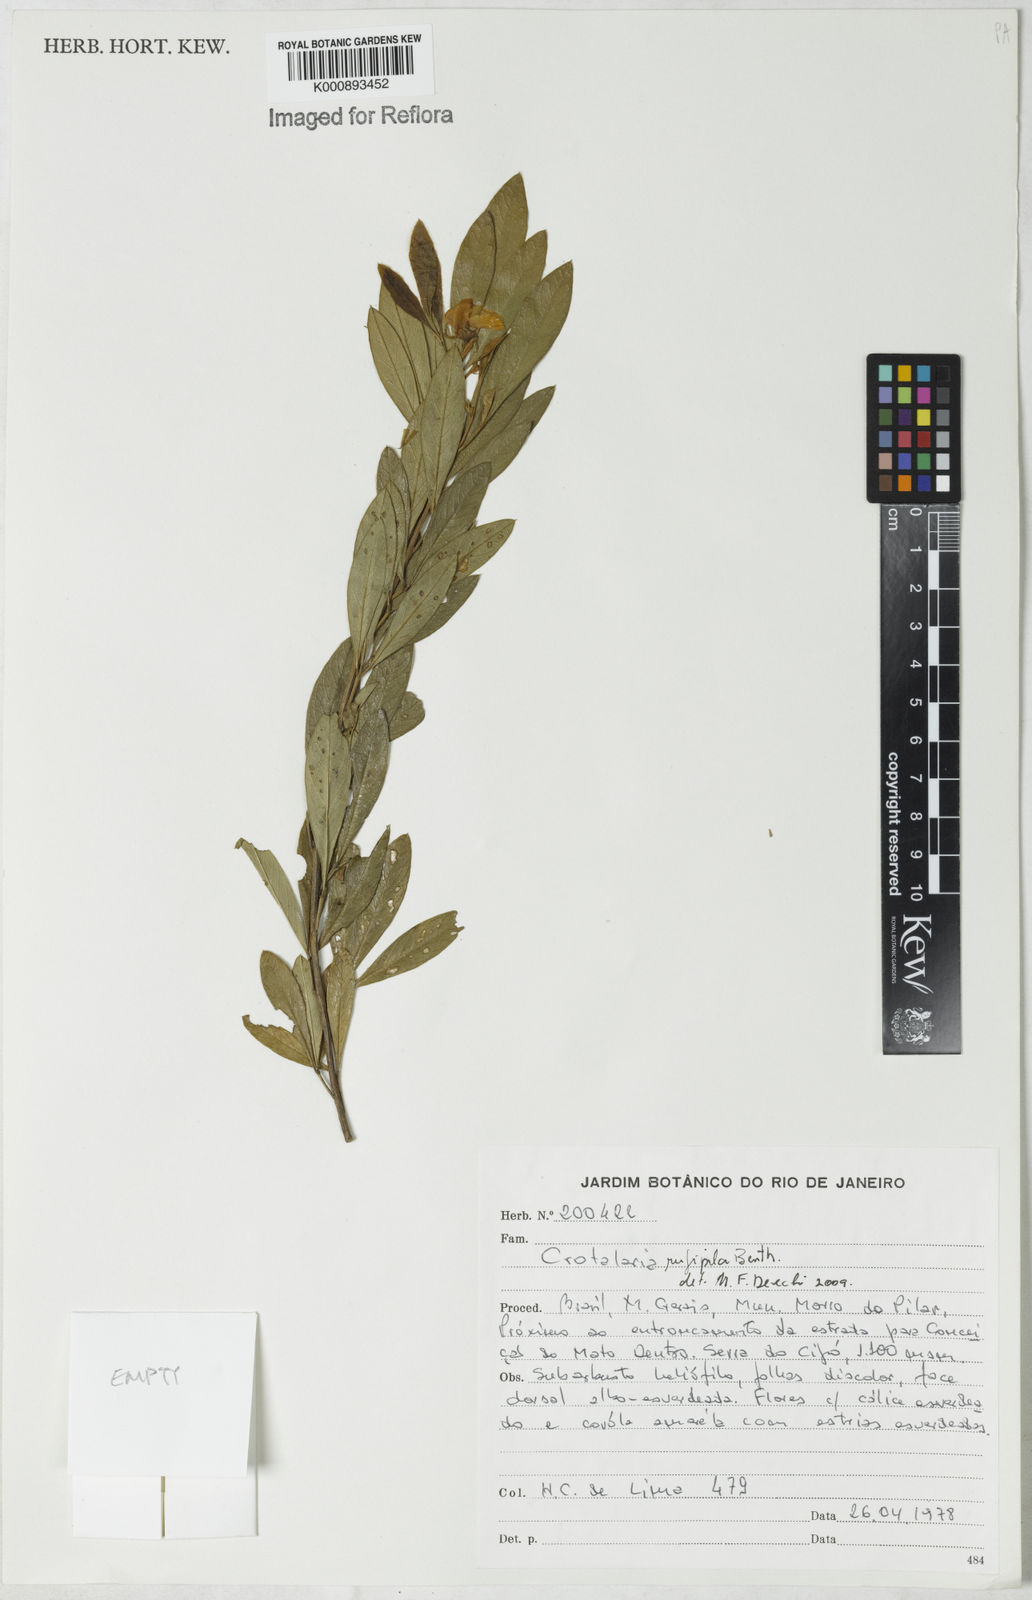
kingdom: Plantae
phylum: Tracheophyta
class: Magnoliopsida
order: Fabales
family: Fabaceae
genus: Crotalaria
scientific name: Crotalaria rufipila
